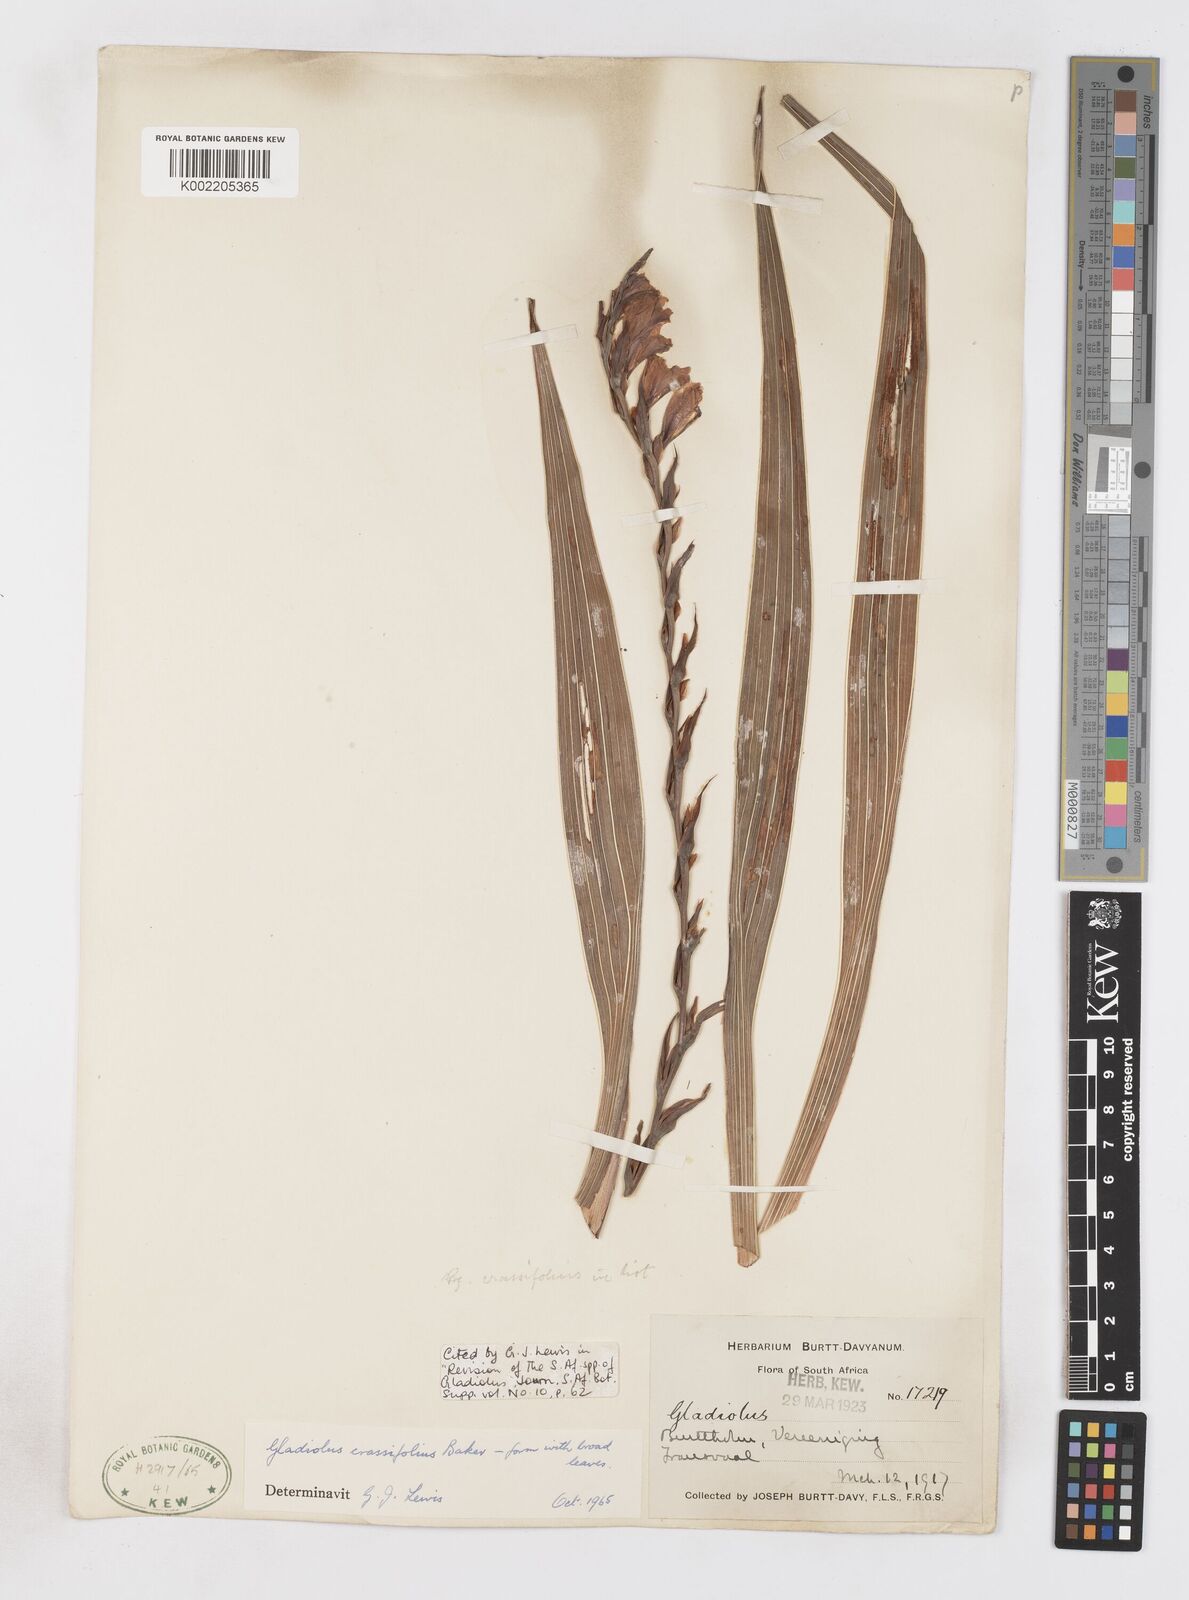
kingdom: Plantae
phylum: Tracheophyta
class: Liliopsida
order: Asparagales
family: Iridaceae
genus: Gladiolus
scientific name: Gladiolus crassifolius
